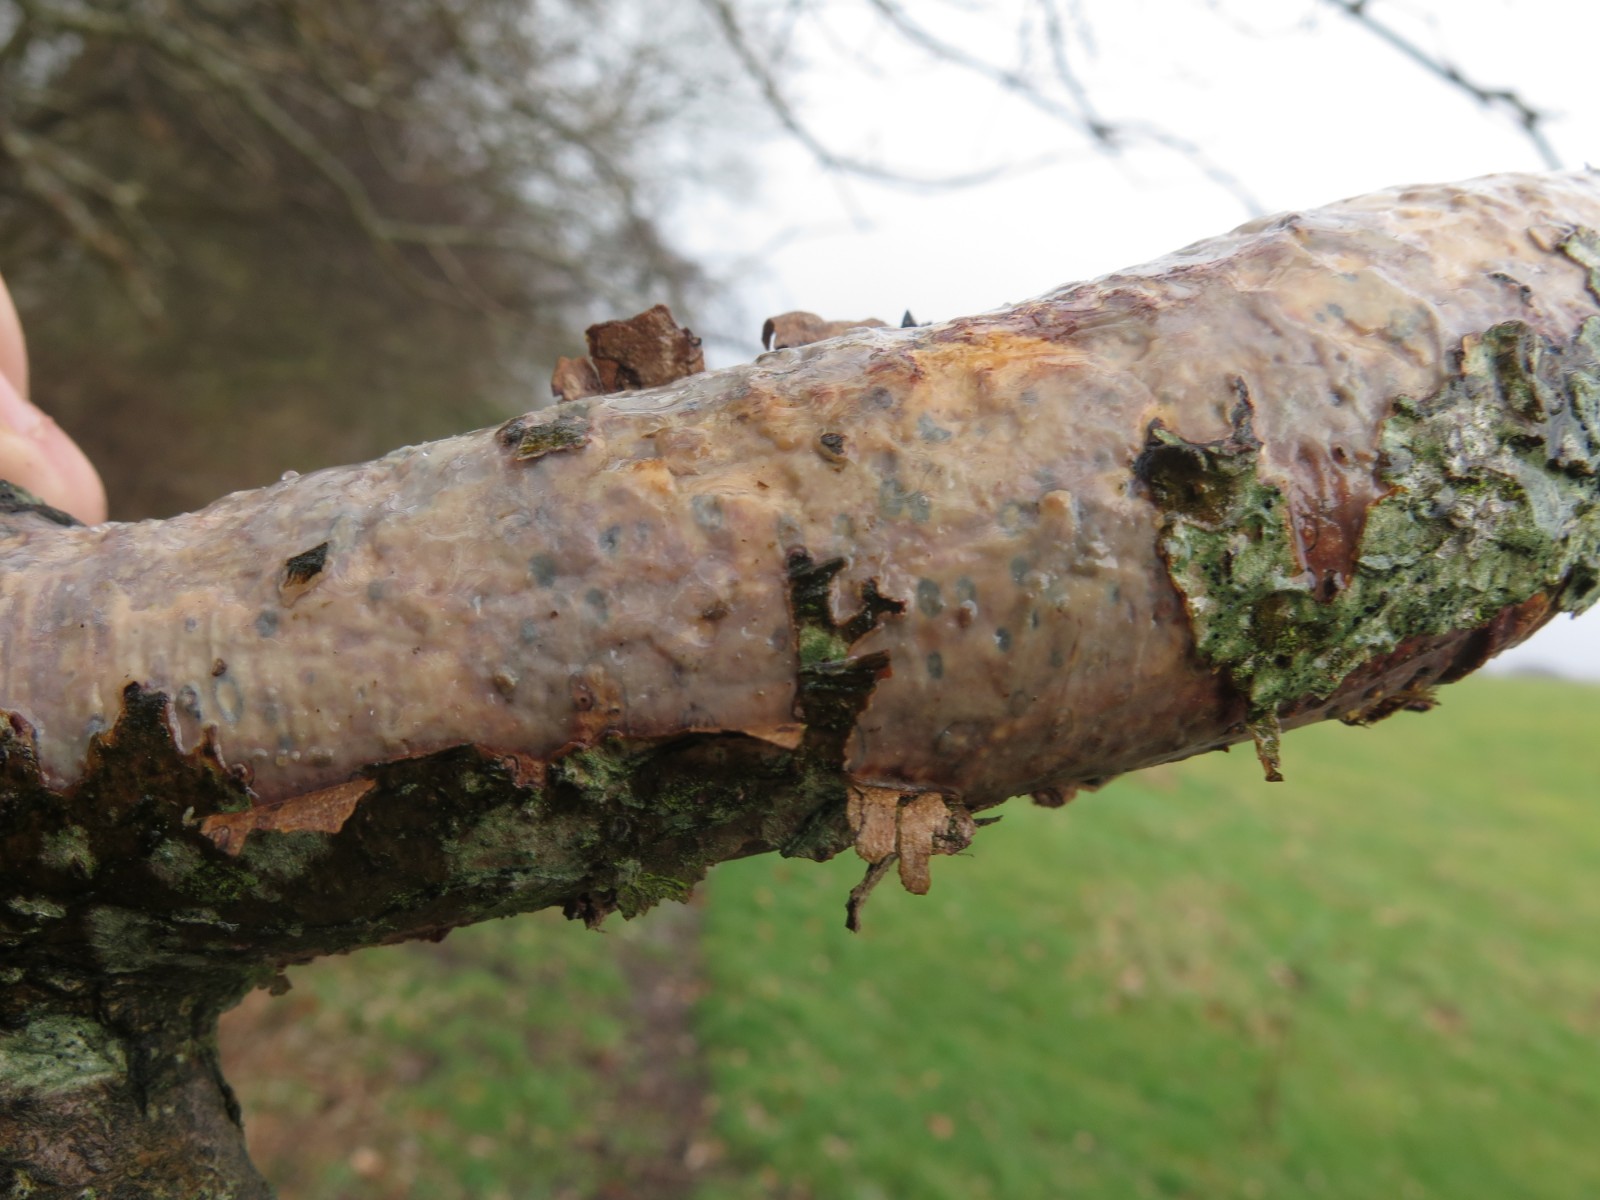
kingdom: Fungi
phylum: Basidiomycota
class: Agaricomycetes
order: Corticiales
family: Vuilleminiaceae
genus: Vuilleminia
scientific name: Vuilleminia comedens
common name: almindelig barksprænger
